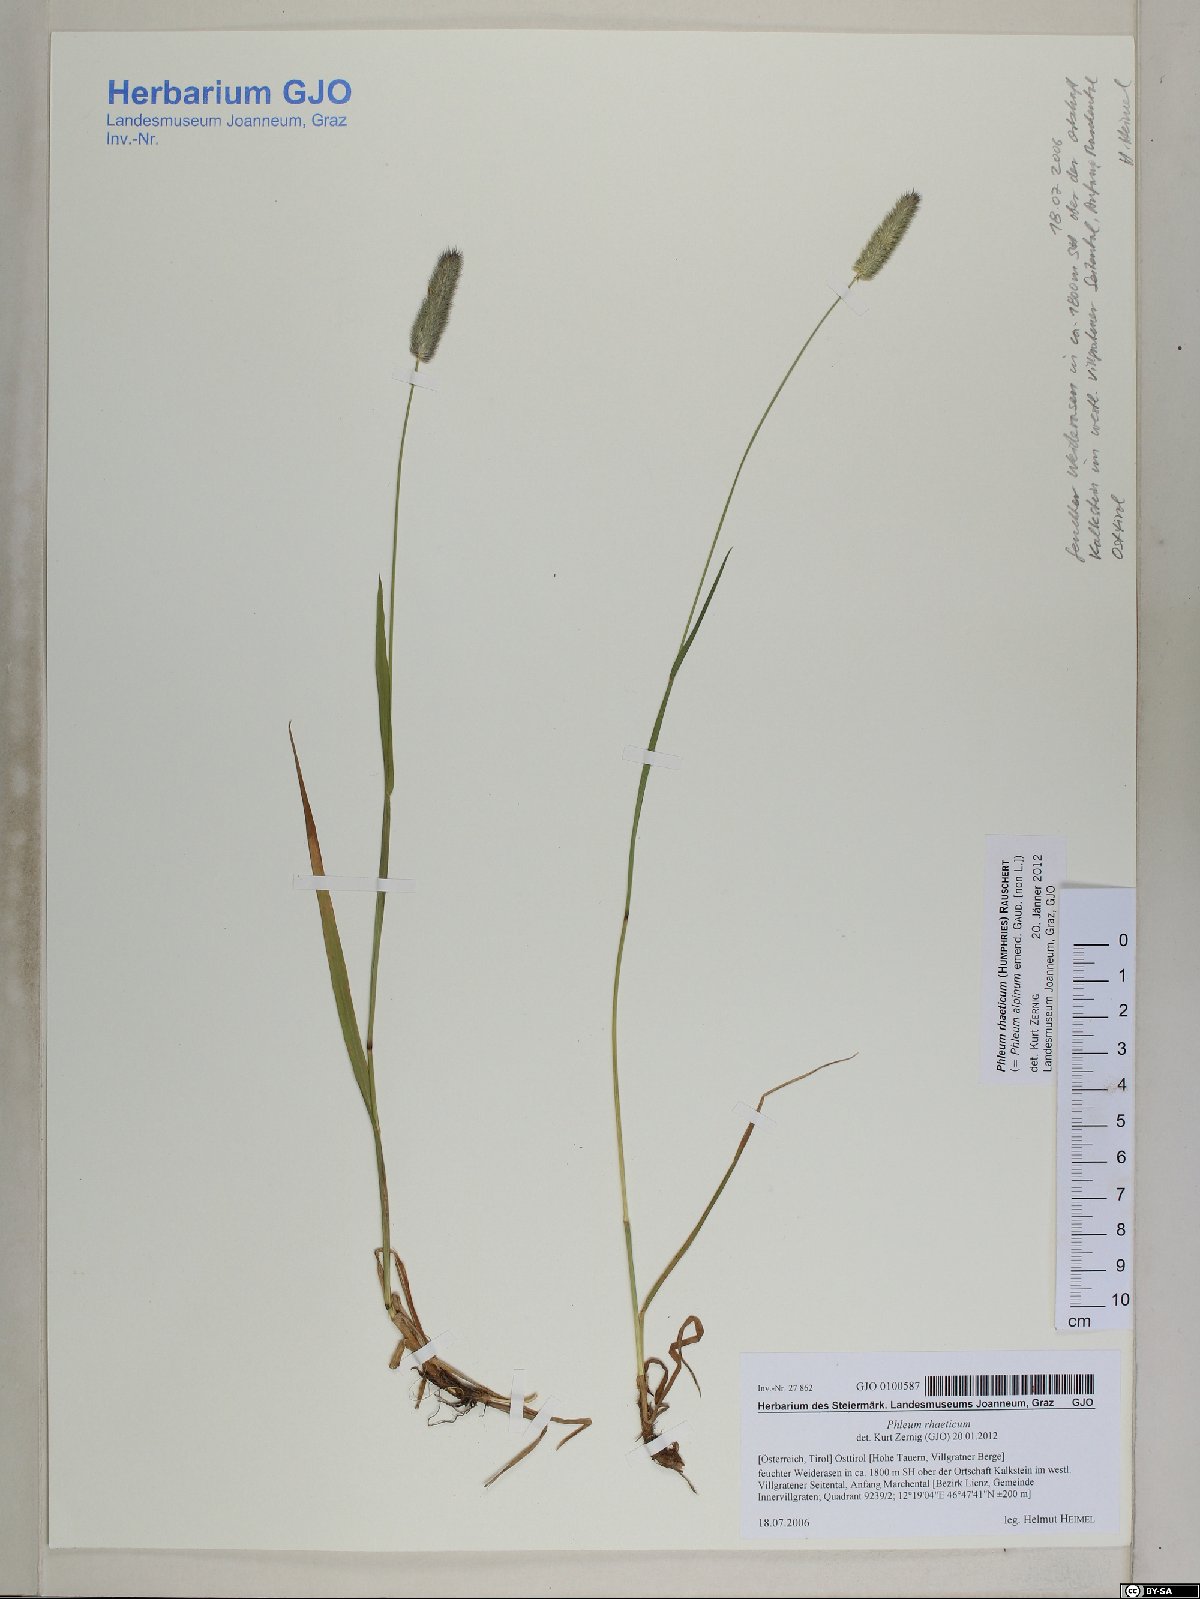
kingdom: Plantae
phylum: Tracheophyta
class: Liliopsida
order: Poales
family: Poaceae
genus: Phleum
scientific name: Phleum alpinum
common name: Alpine cat's-tail
